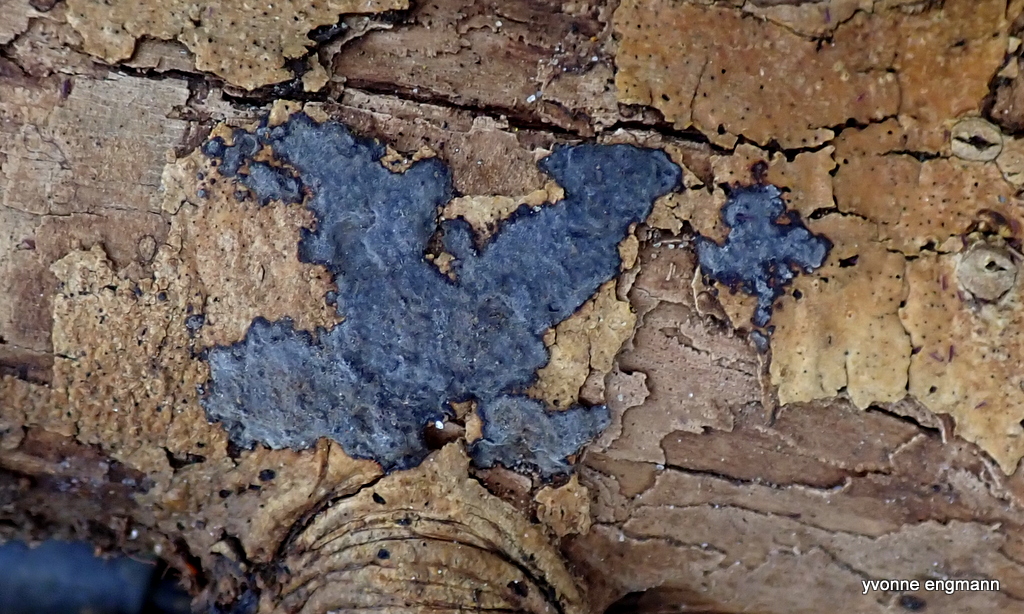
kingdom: Fungi
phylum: Basidiomycota
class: Agaricomycetes
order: Russulales
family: Peniophoraceae
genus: Peniophora
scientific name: Peniophora limitata
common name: mørkrandet voksskind
